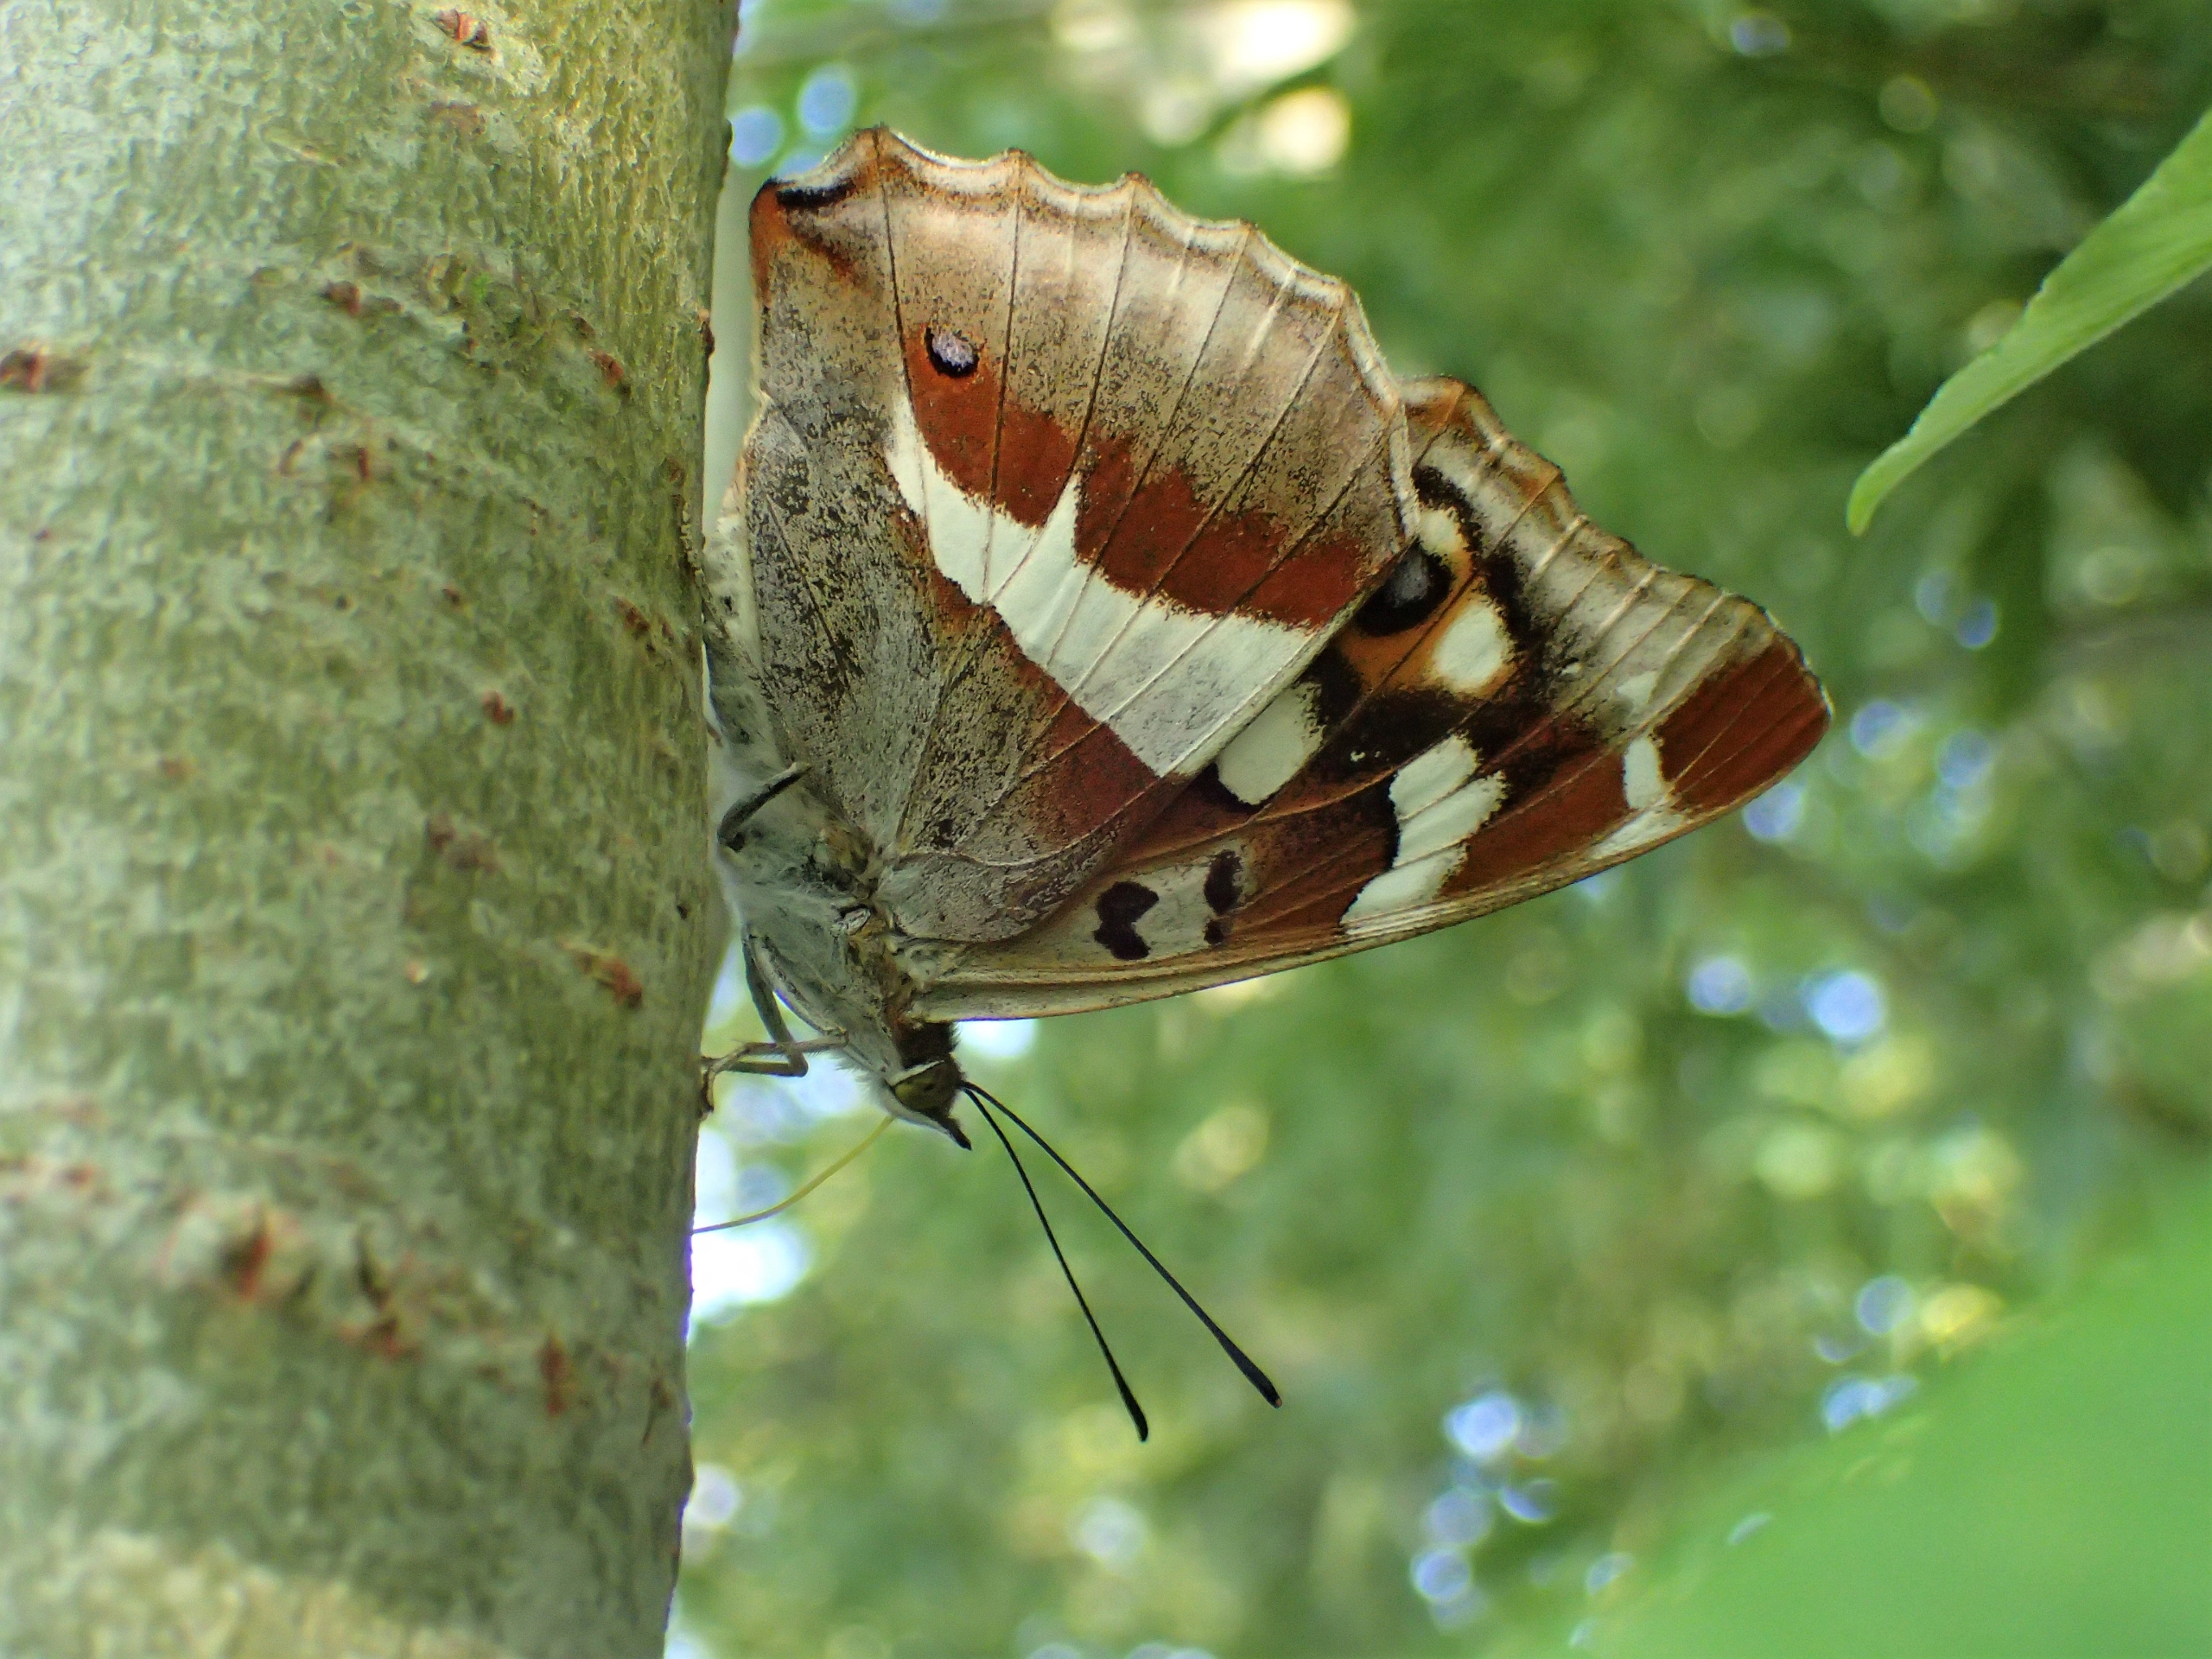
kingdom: Animalia
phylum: Arthropoda
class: Insecta
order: Lepidoptera
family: Nymphalidae
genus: Apatura
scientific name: Apatura iris
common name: Iris
